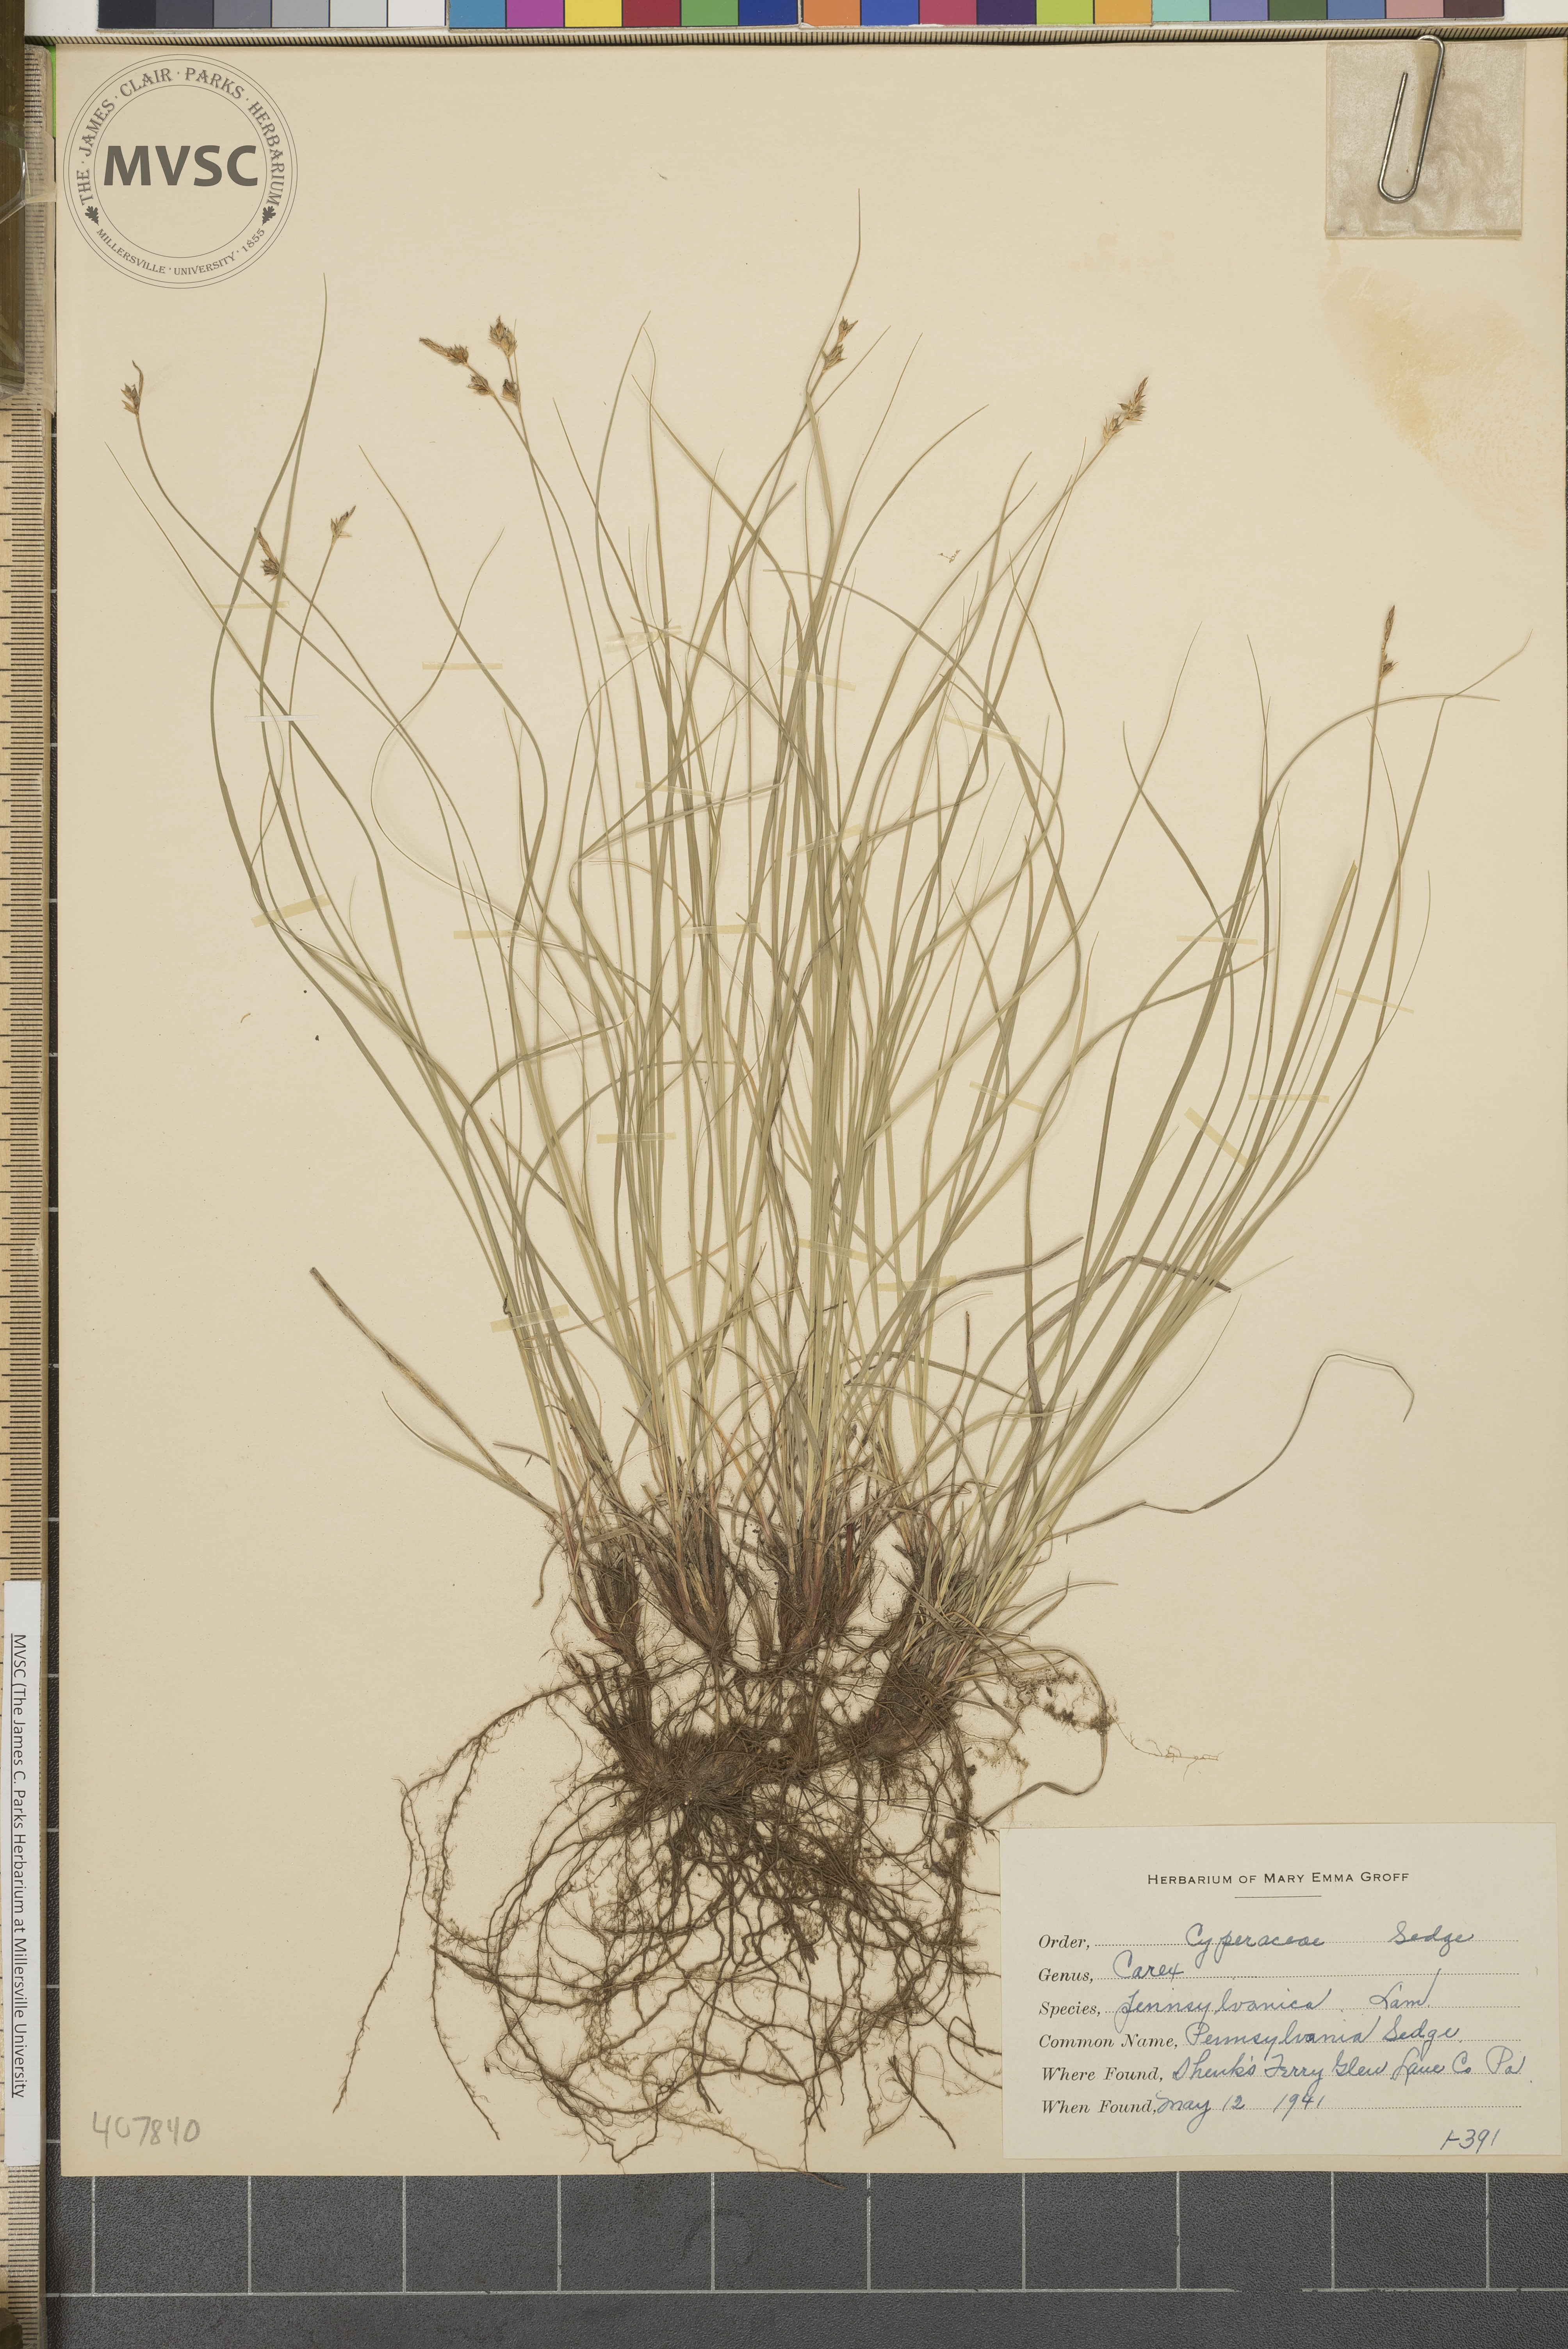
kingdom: Plantae
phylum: Tracheophyta
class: Liliopsida
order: Poales
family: Cyperaceae
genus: Carex
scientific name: Carex pensylvanica
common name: Pennsylvania Sedge
